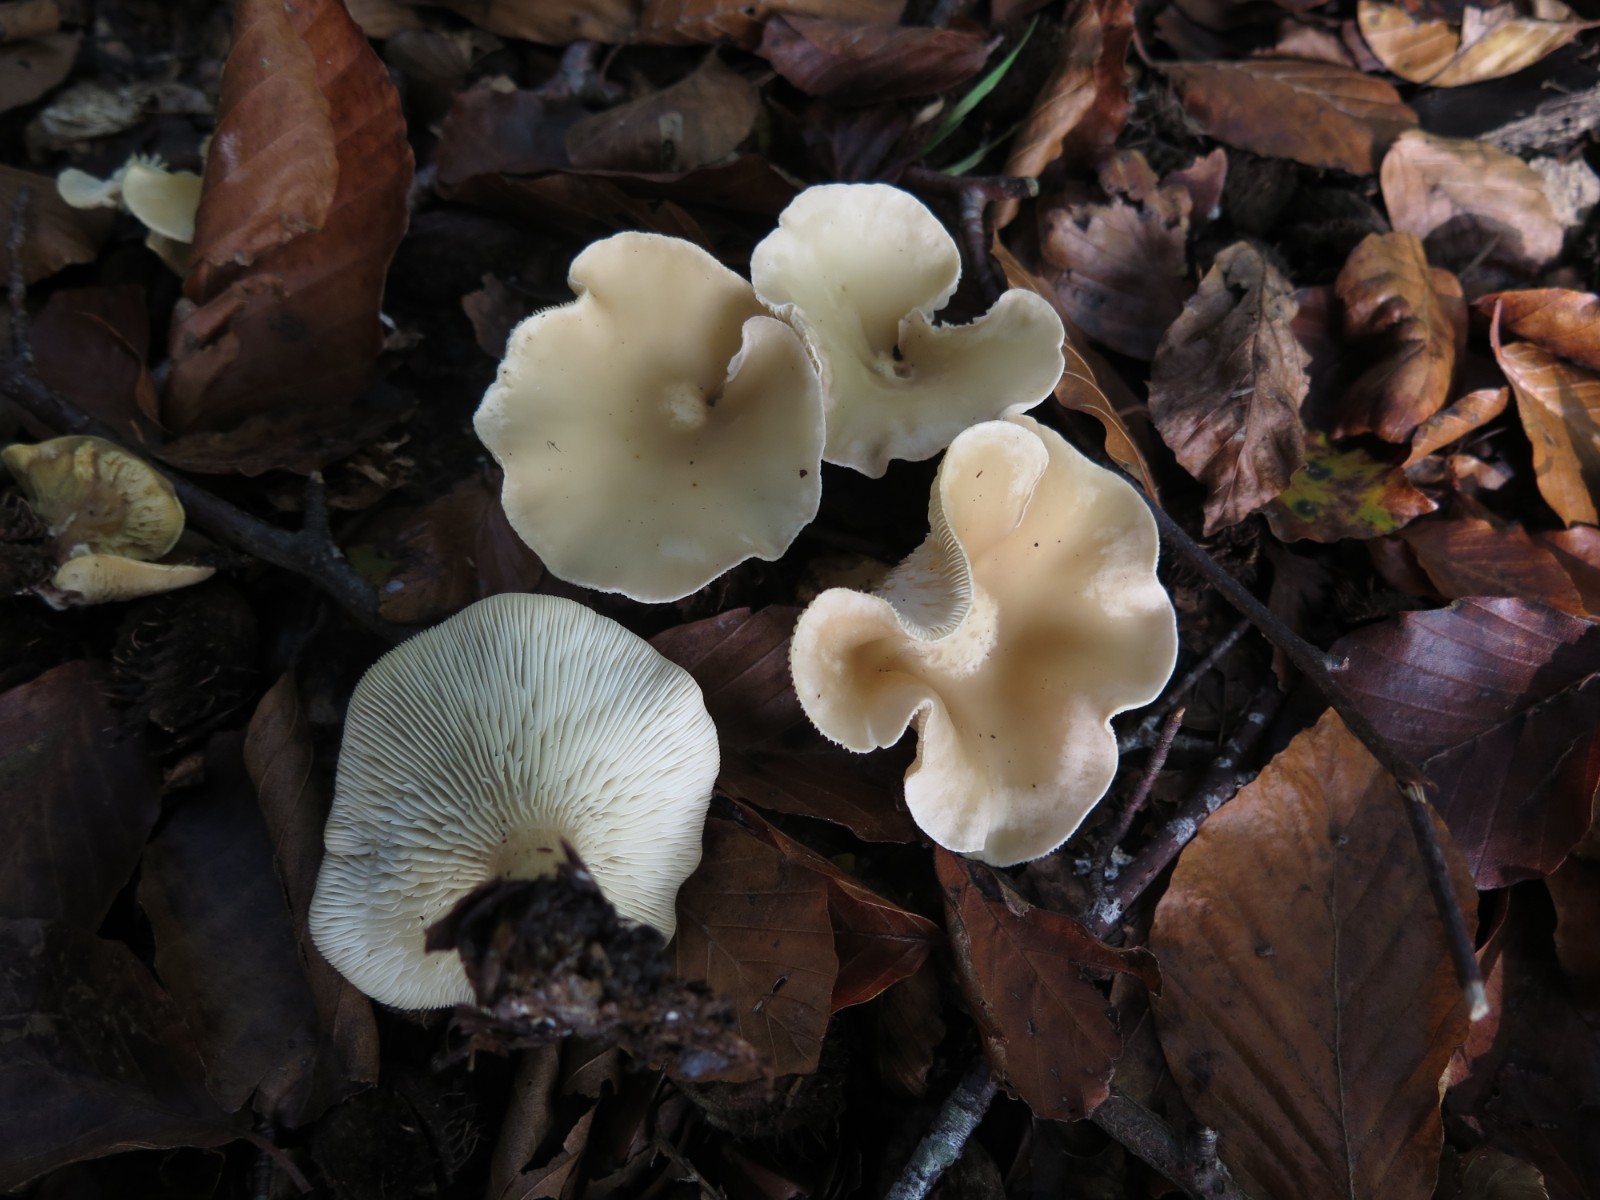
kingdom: Fungi
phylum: Basidiomycota
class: Agaricomycetes
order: Agaricales
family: Tricholomataceae
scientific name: Tricholomataceae
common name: ridderhatfamilien
